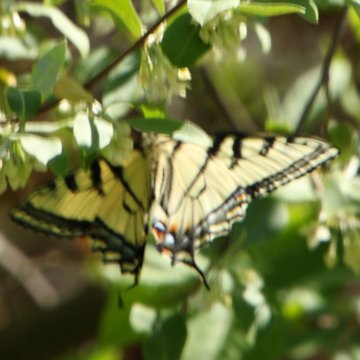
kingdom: Animalia
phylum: Arthropoda
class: Insecta
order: Lepidoptera
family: Papilionidae
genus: Pterourus
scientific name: Pterourus canadensis
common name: Canadian Tiger Swallowtail
